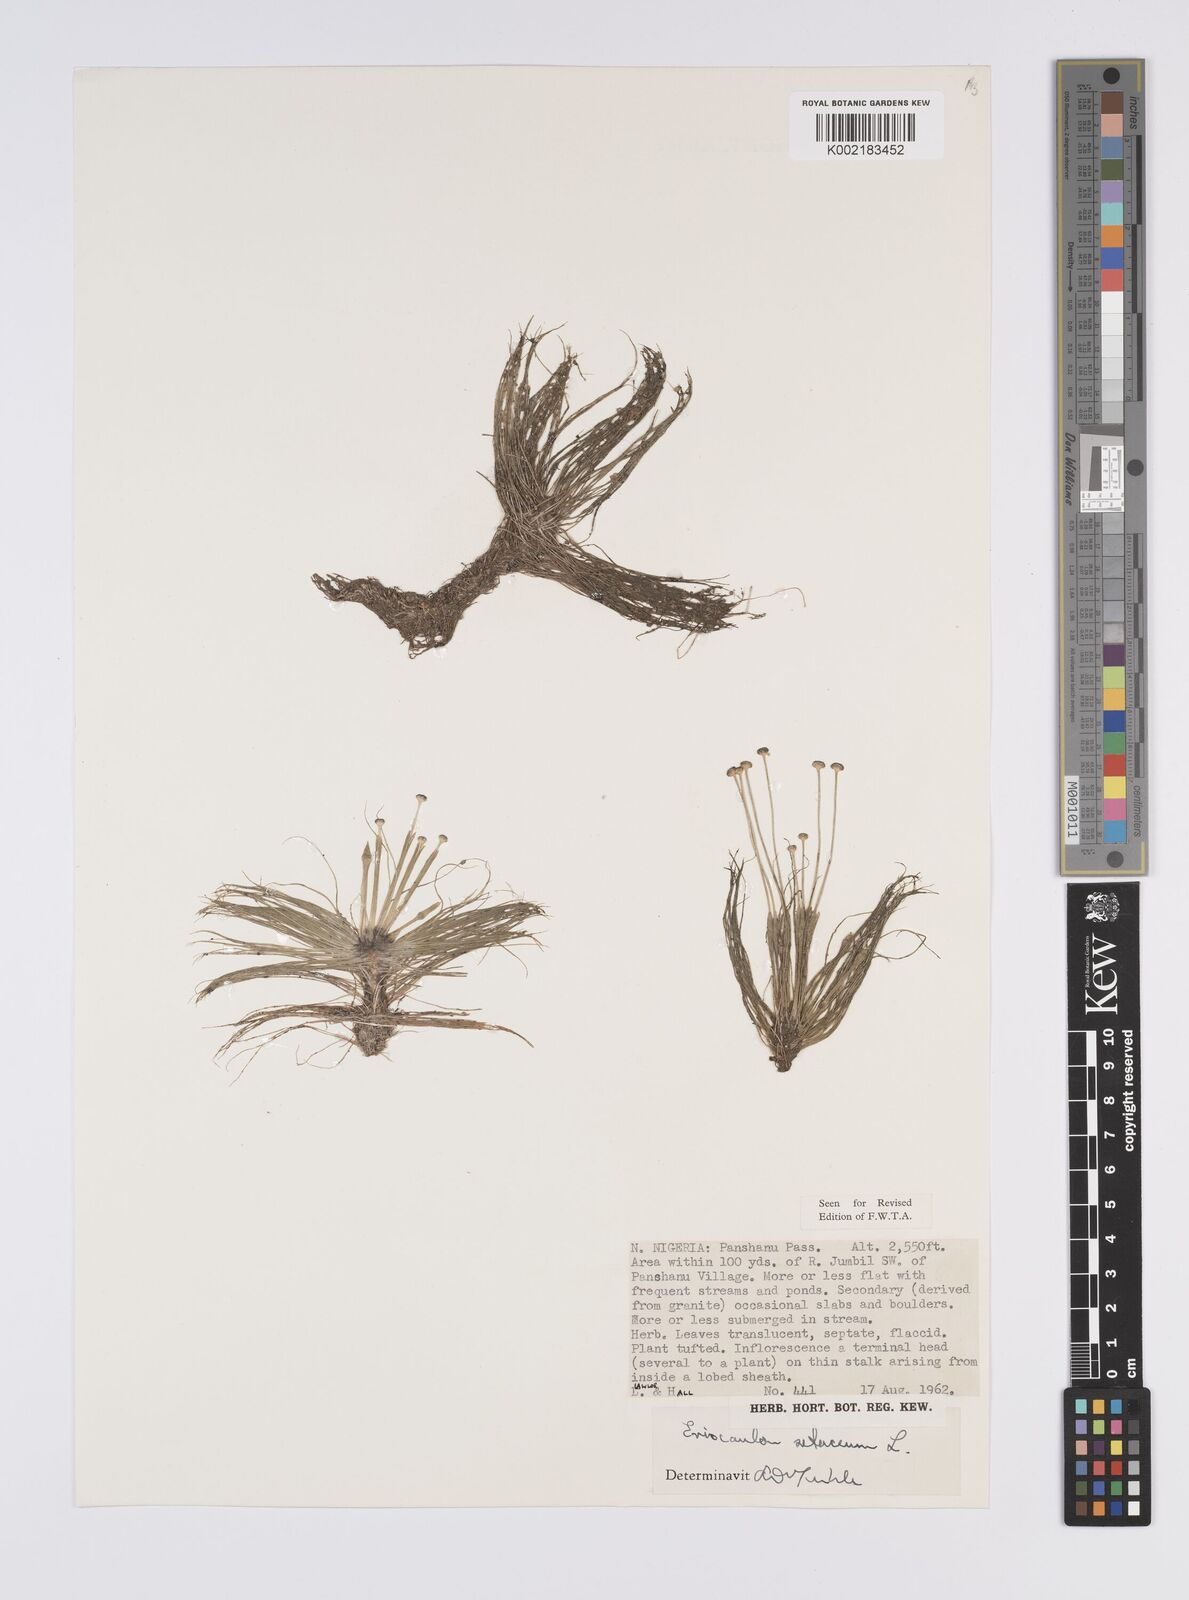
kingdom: Plantae
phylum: Tracheophyta
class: Liliopsida
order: Poales
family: Eriocaulaceae
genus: Eriocaulon
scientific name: Eriocaulon setaceum
